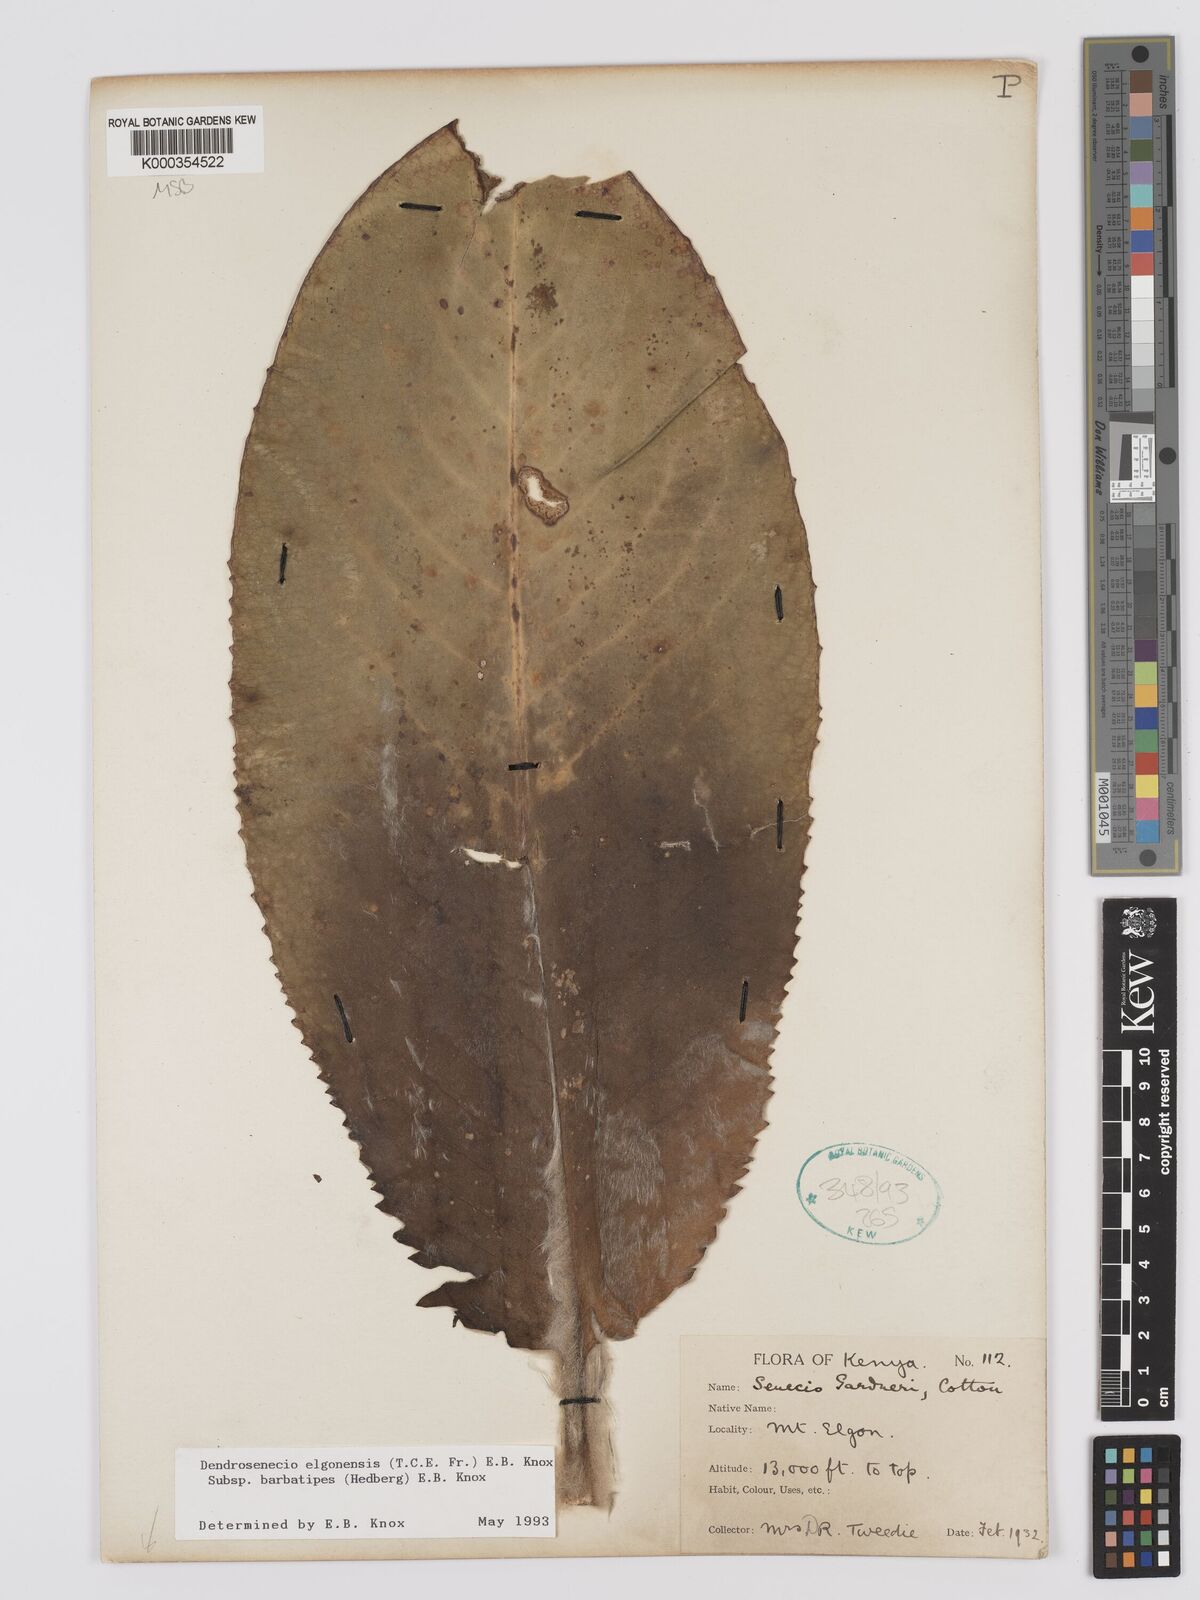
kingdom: Plantae
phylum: Tracheophyta
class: Magnoliopsida
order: Asterales
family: Asteraceae
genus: Dendrosenecio
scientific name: Dendrosenecio elgonensis
